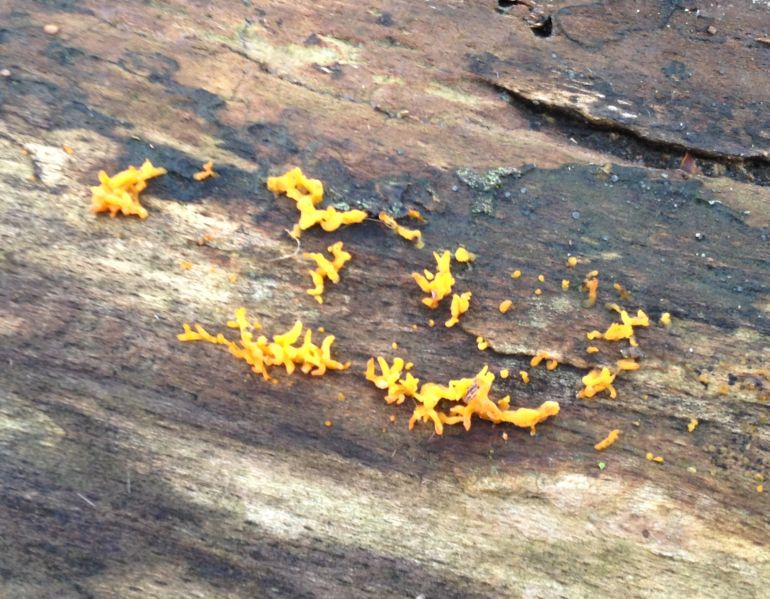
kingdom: Fungi
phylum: Basidiomycota
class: Dacrymycetes
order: Dacrymycetales
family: Dacrymycetaceae
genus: Calocera
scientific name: Calocera cornea
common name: liden guldgaffel
